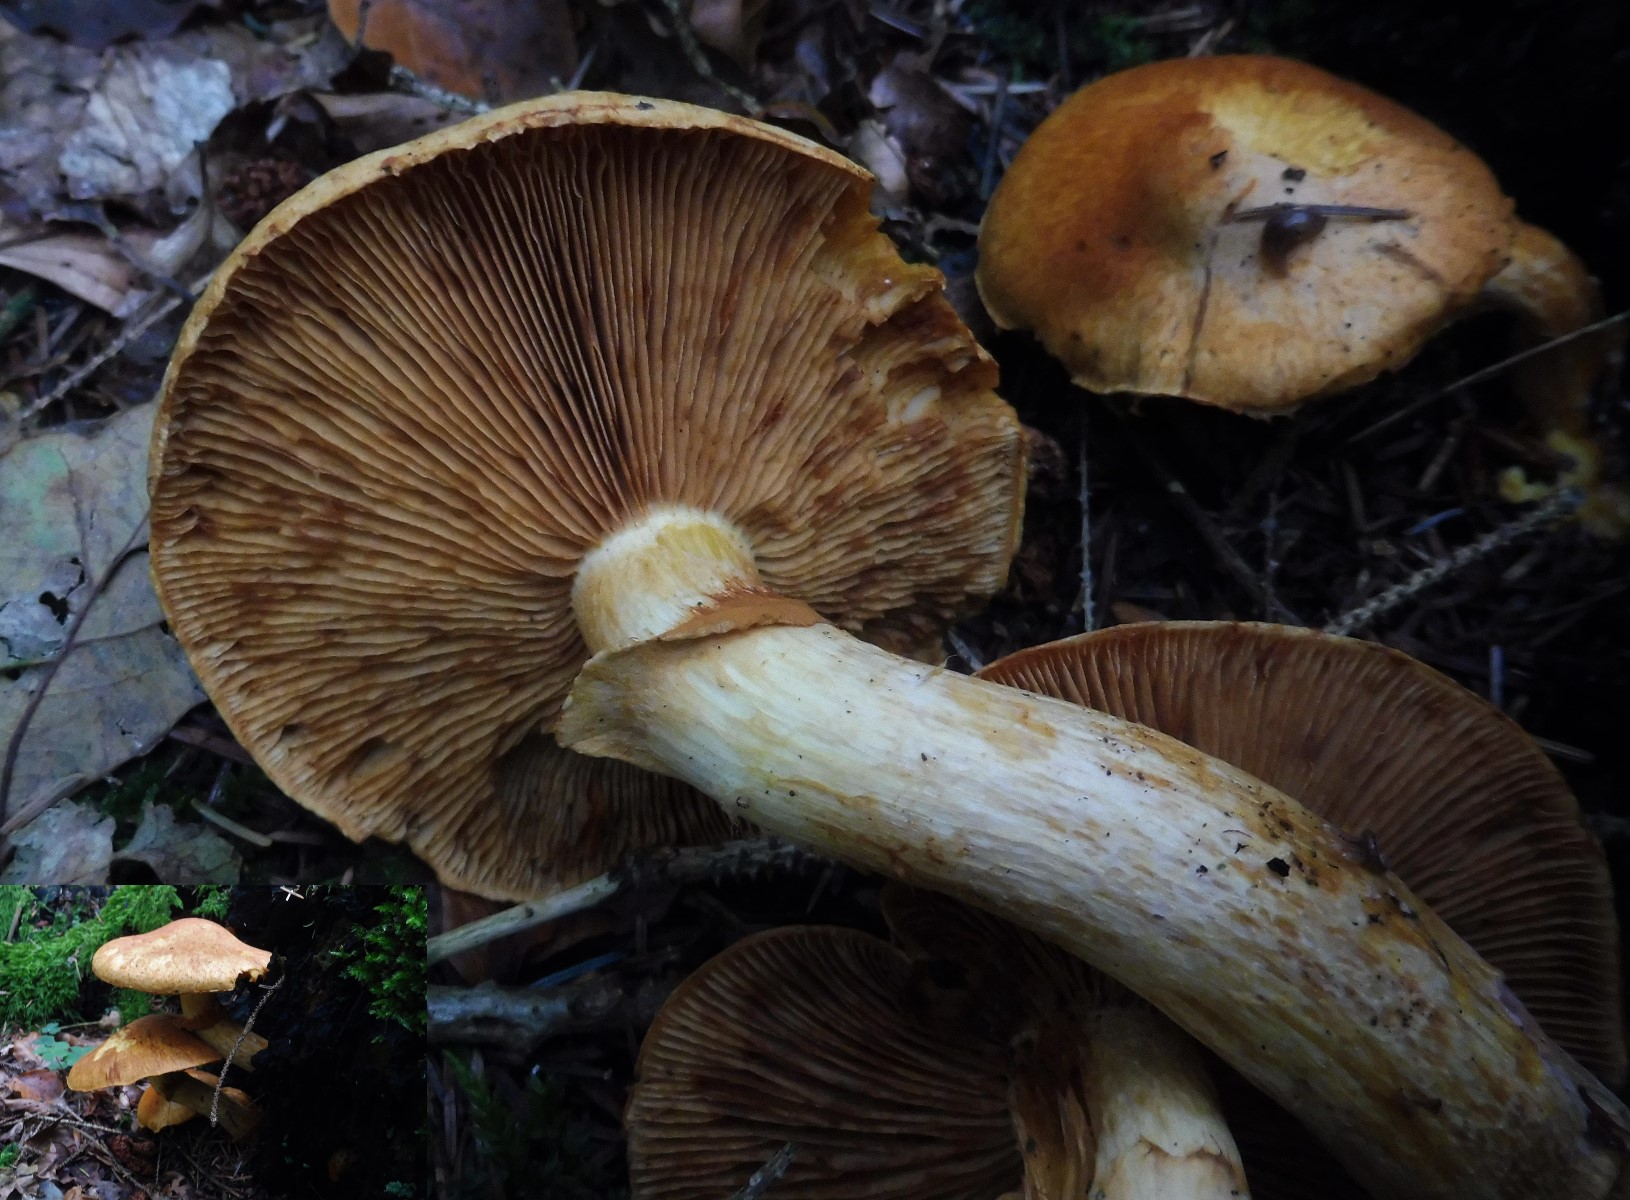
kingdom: Fungi
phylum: Basidiomycota
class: Agaricomycetes
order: Agaricales
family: Hymenogastraceae
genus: Gymnopilus
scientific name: Gymnopilus spectabilis
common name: fibret flammehat
